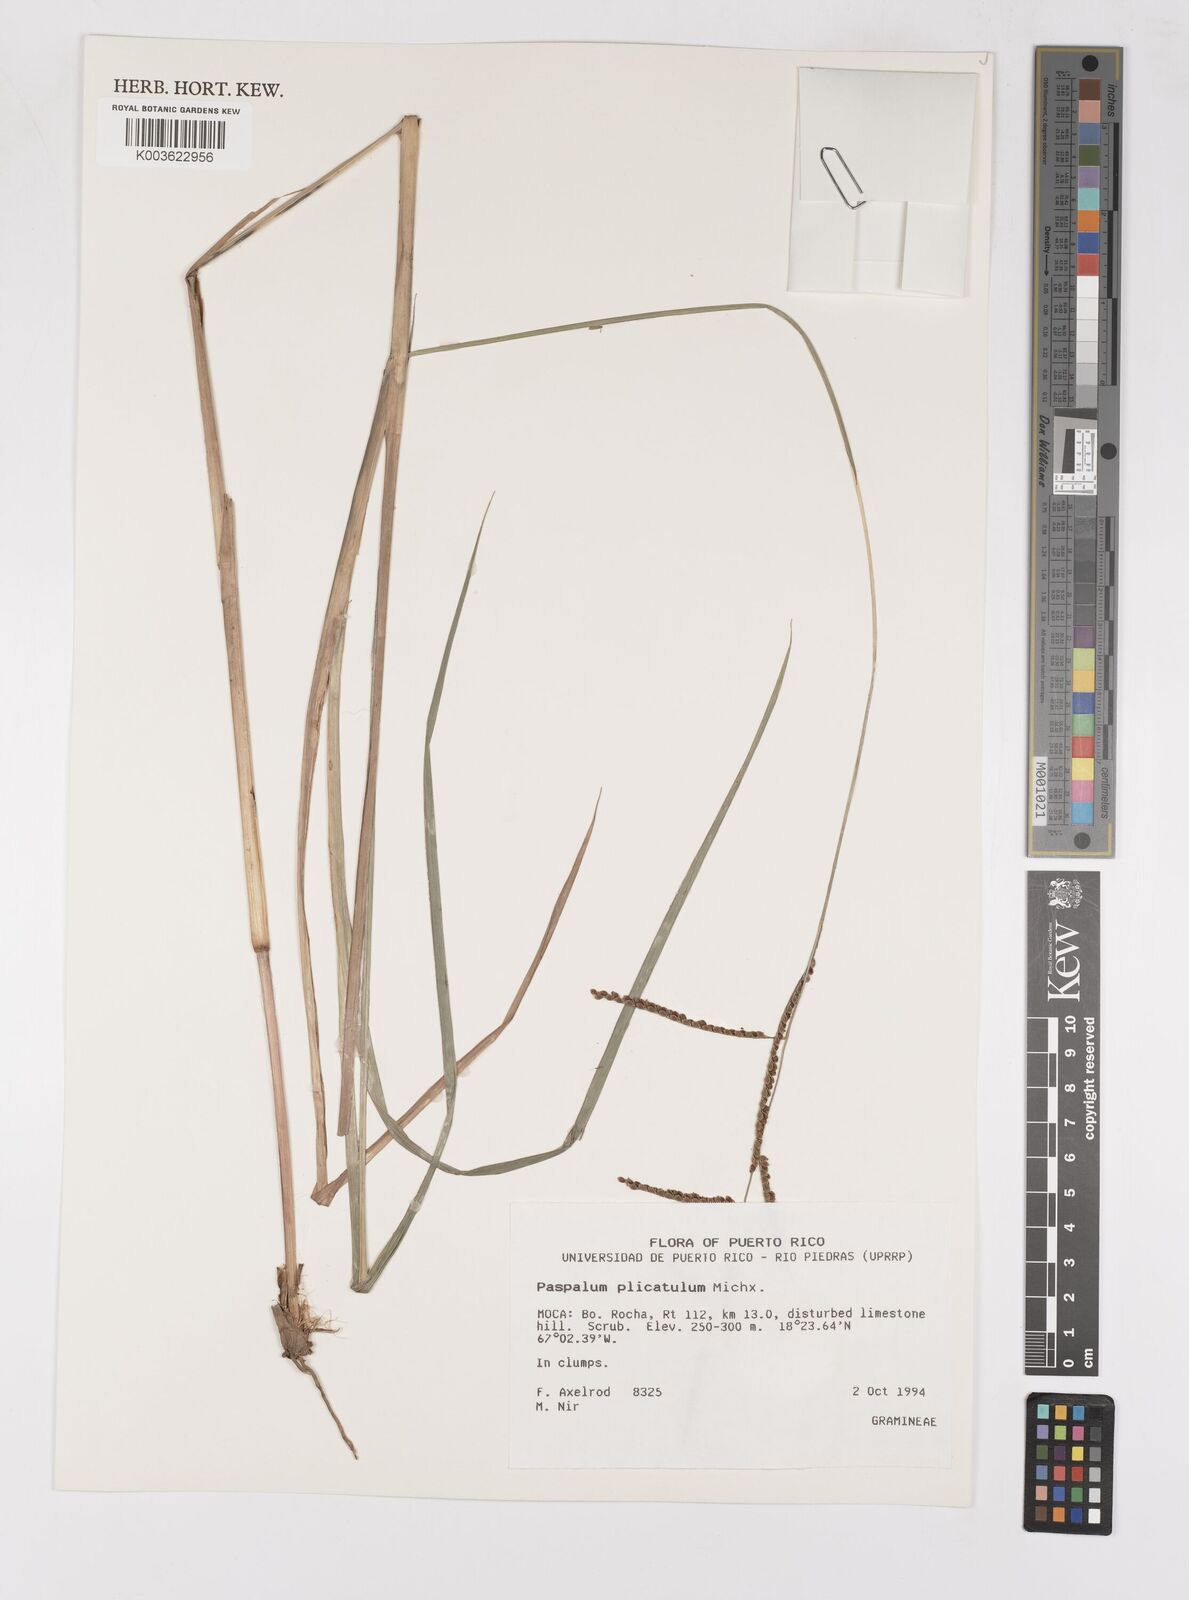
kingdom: Plantae
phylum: Tracheophyta
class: Liliopsida
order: Poales
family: Poaceae
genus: Paspalum
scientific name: Paspalum plicatulum
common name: Top paspalum
